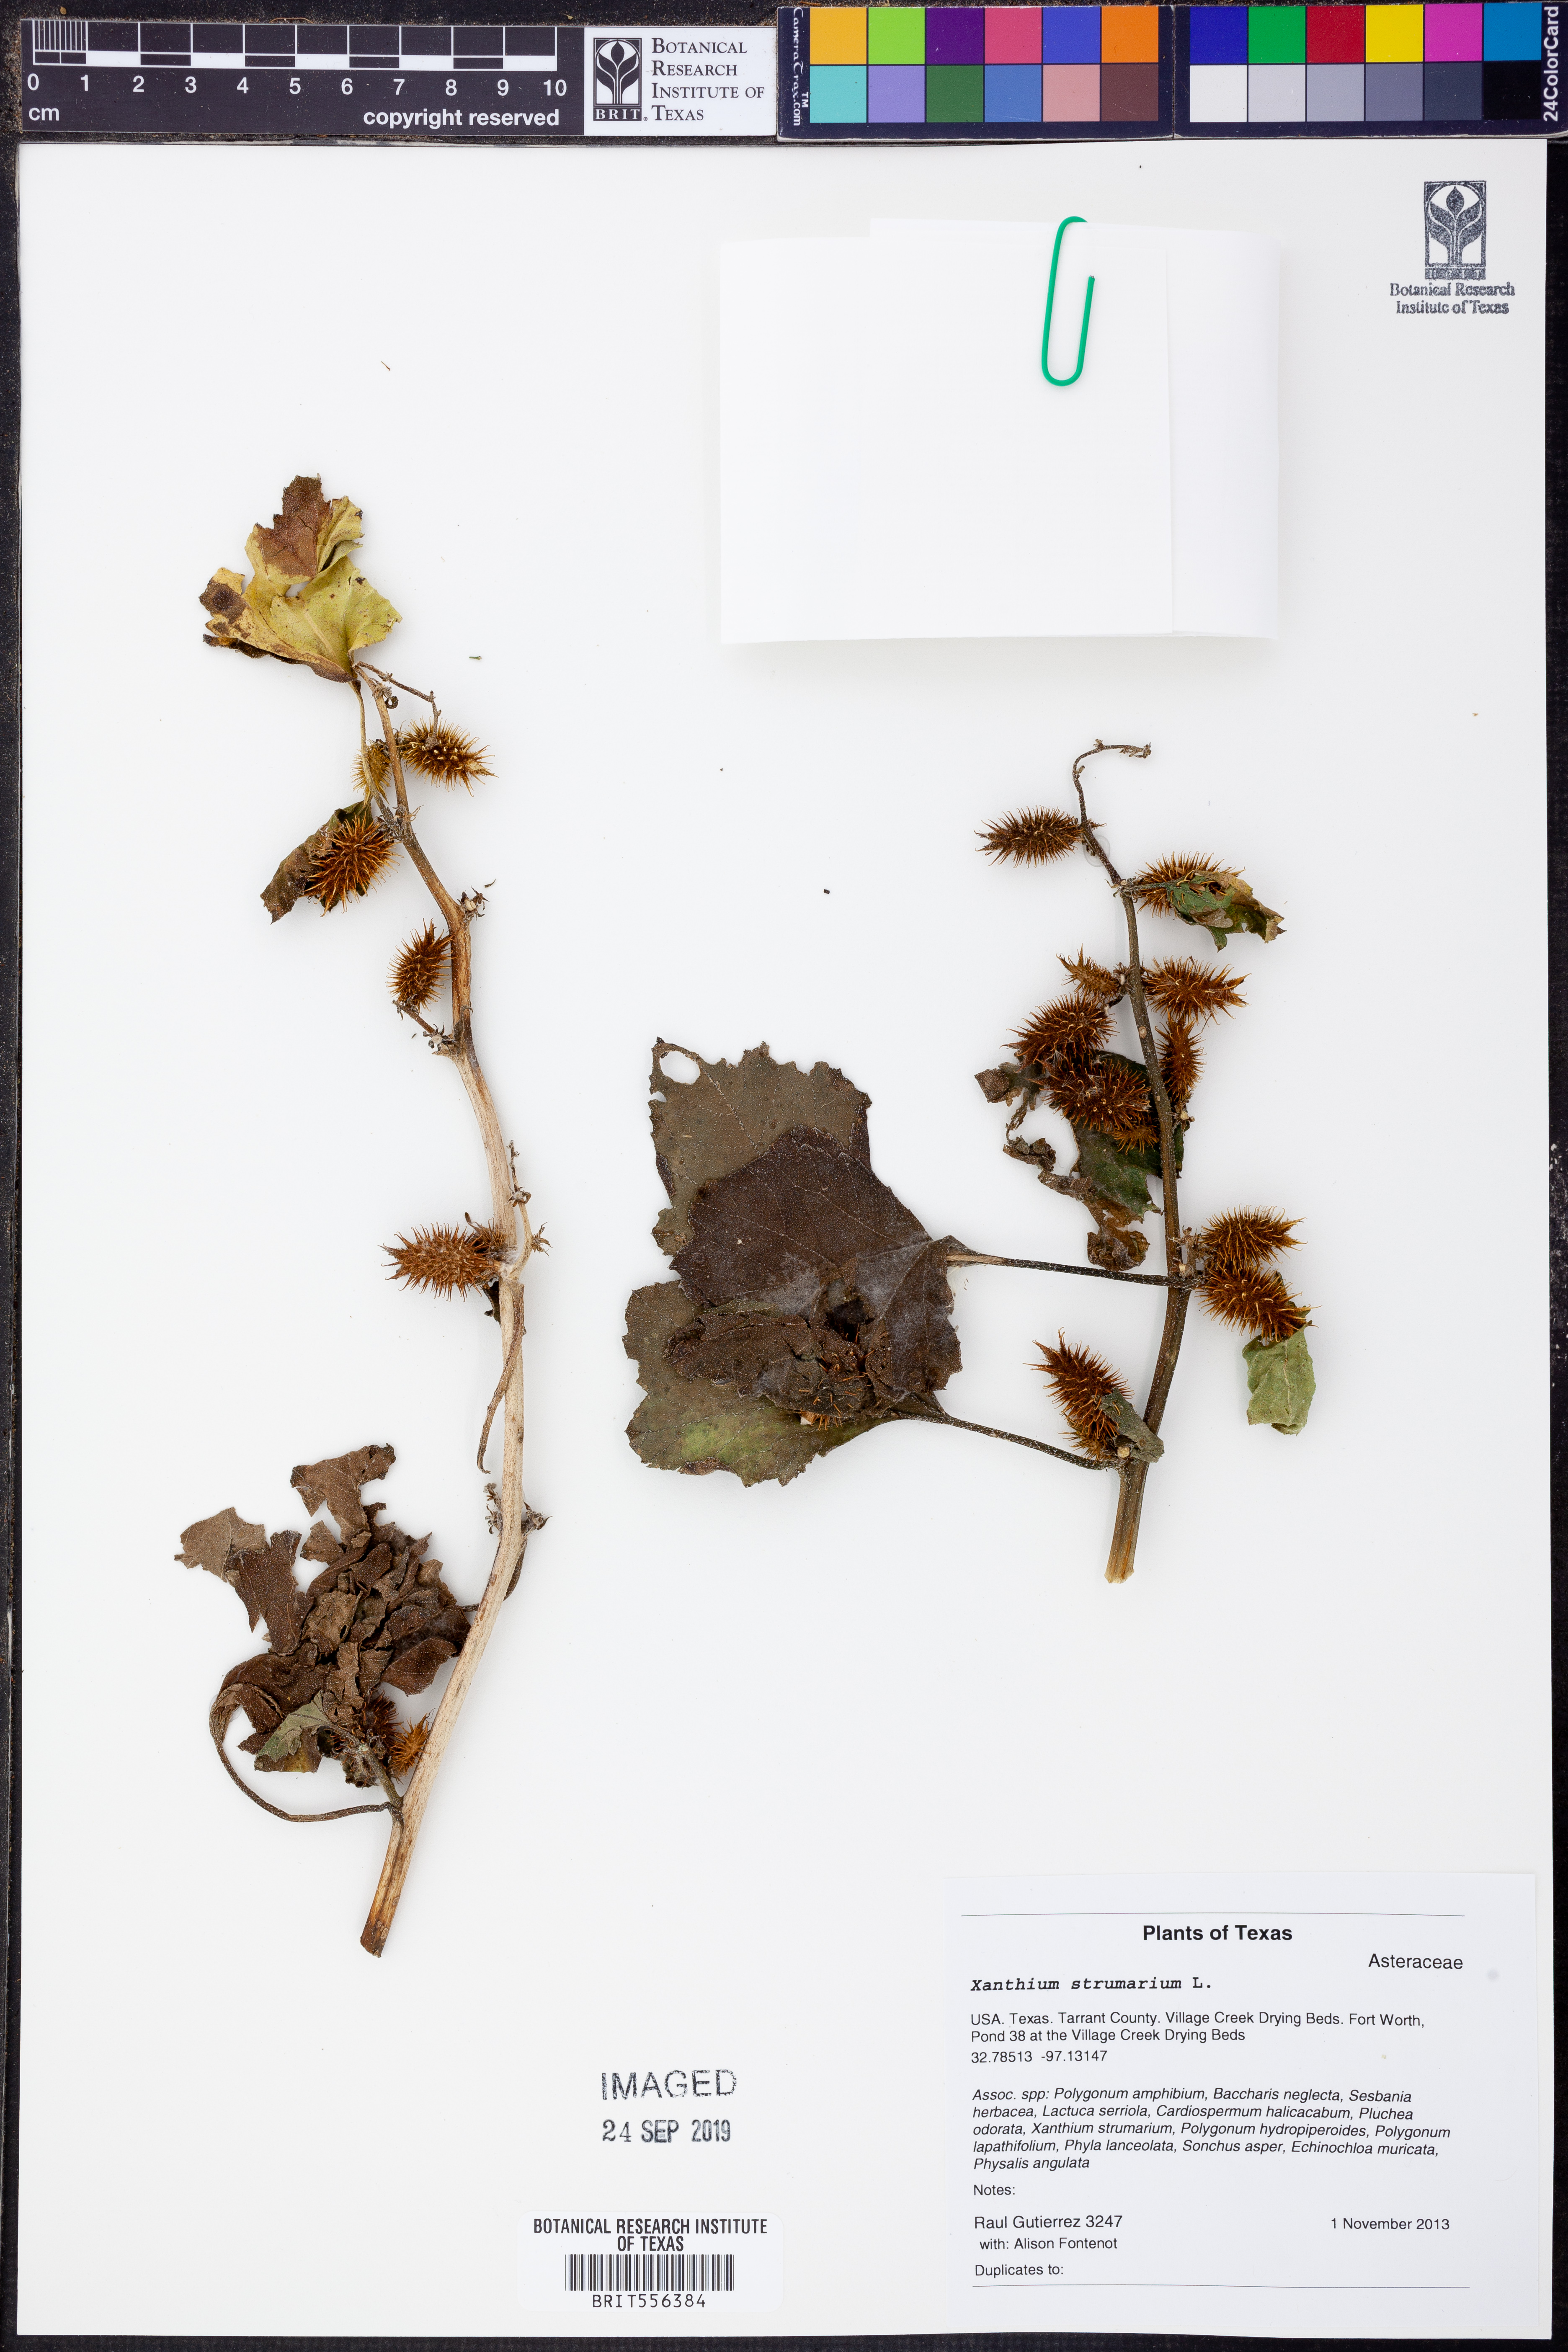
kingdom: Plantae
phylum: Tracheophyta
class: Magnoliopsida
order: Asterales
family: Asteraceae
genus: Xanthium
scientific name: Xanthium strumarium
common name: Rough cocklebur
